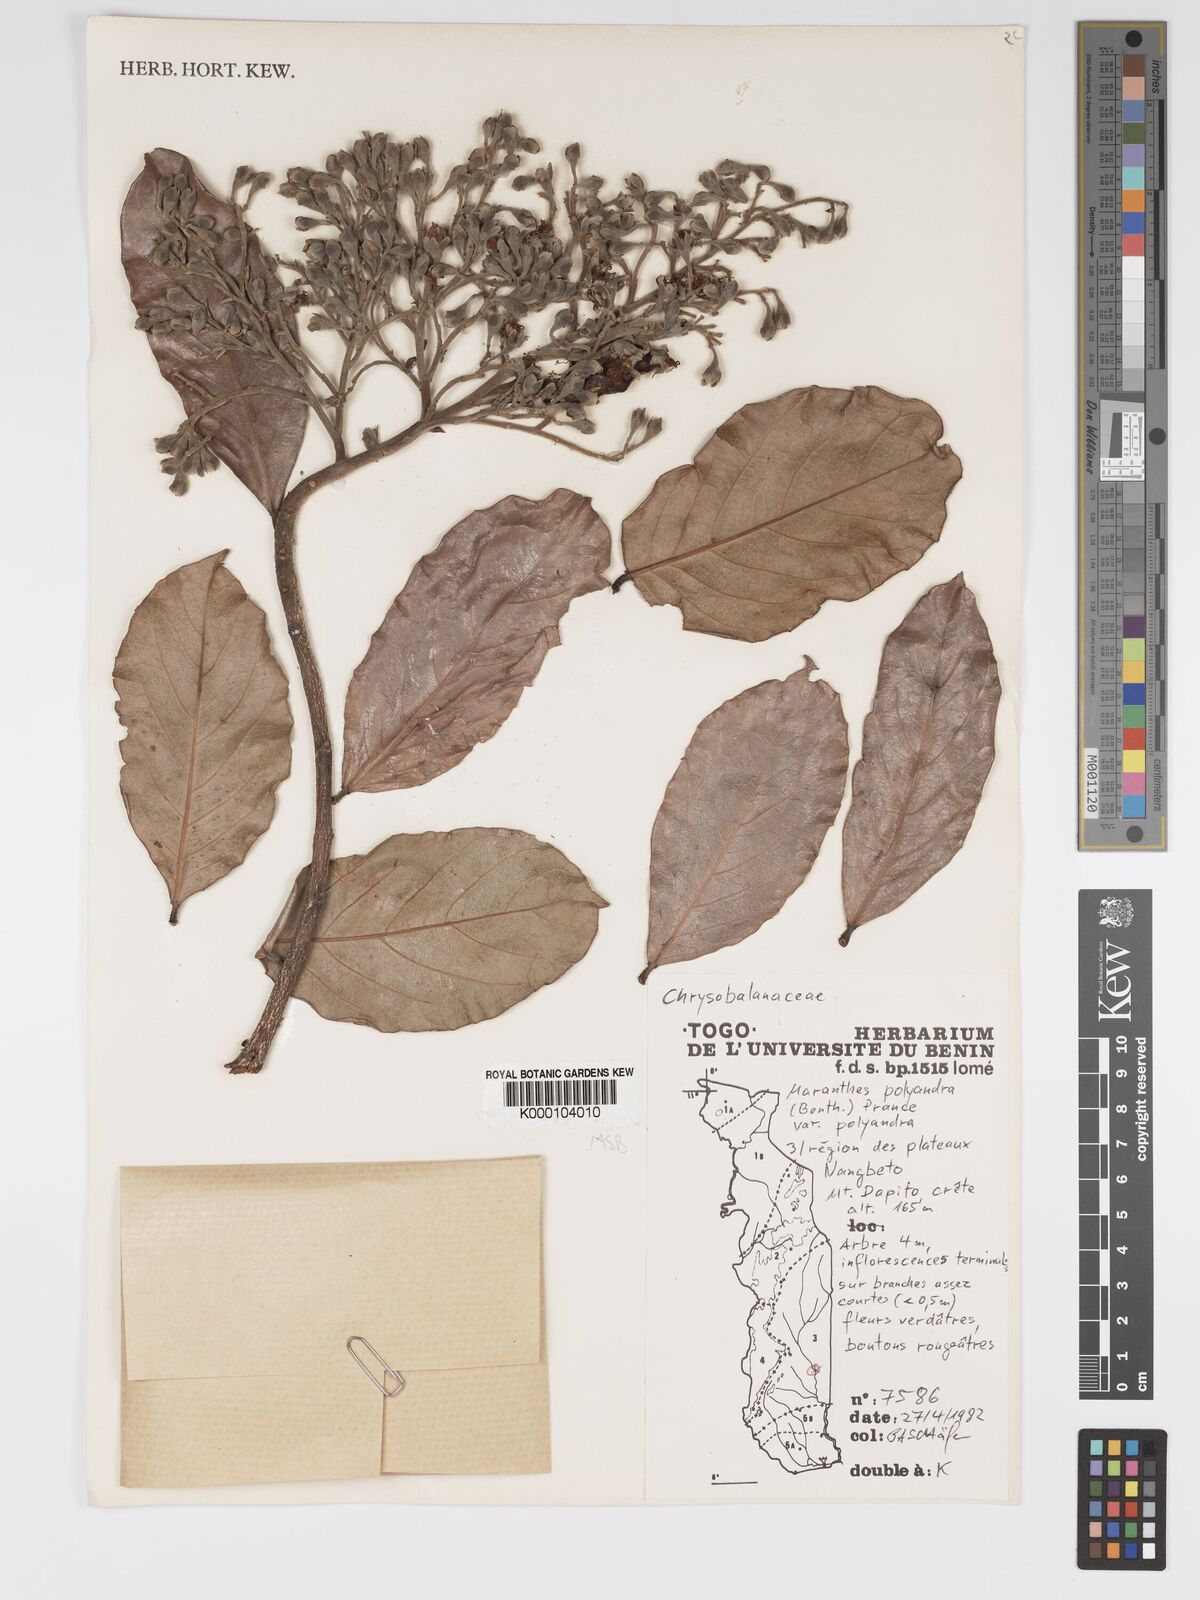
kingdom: Plantae
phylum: Tracheophyta
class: Magnoliopsida
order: Malpighiales
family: Chrysobalanaceae
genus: Maranthes
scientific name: Maranthes polyandra
